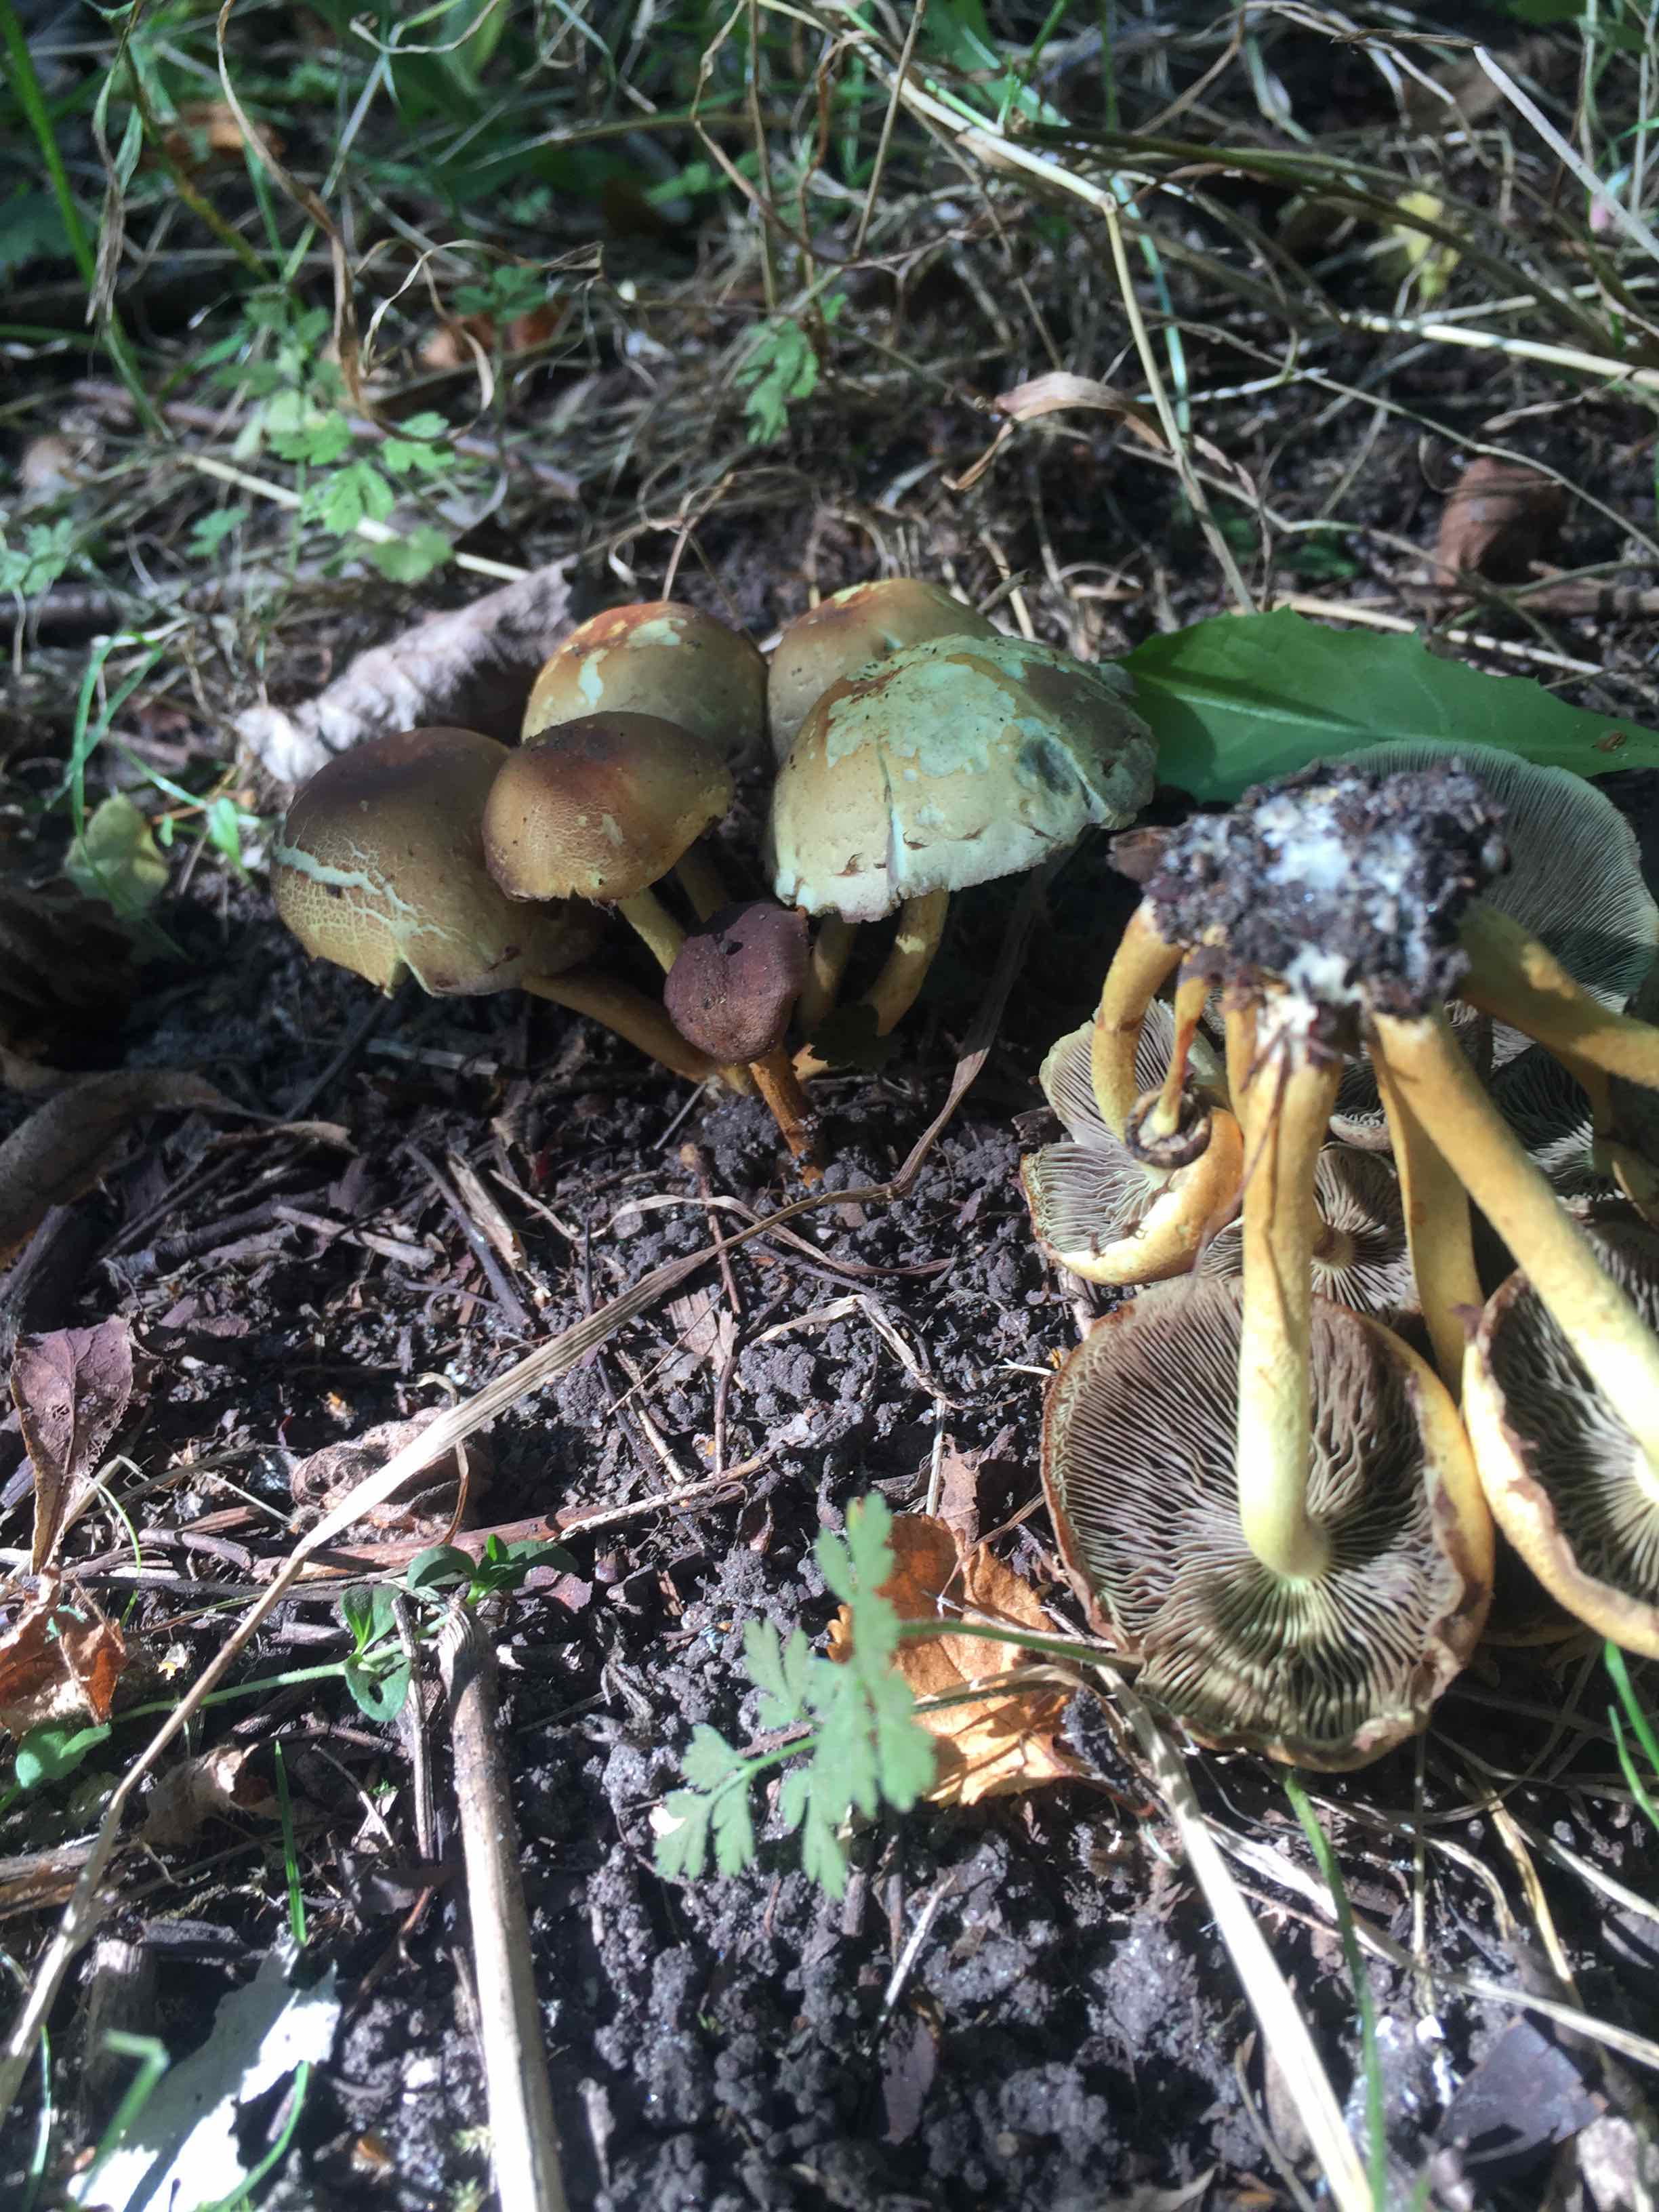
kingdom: Fungi
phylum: Basidiomycota
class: Agaricomycetes
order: Agaricales
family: Strophariaceae
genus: Hypholoma
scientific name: Hypholoma fasciculare
